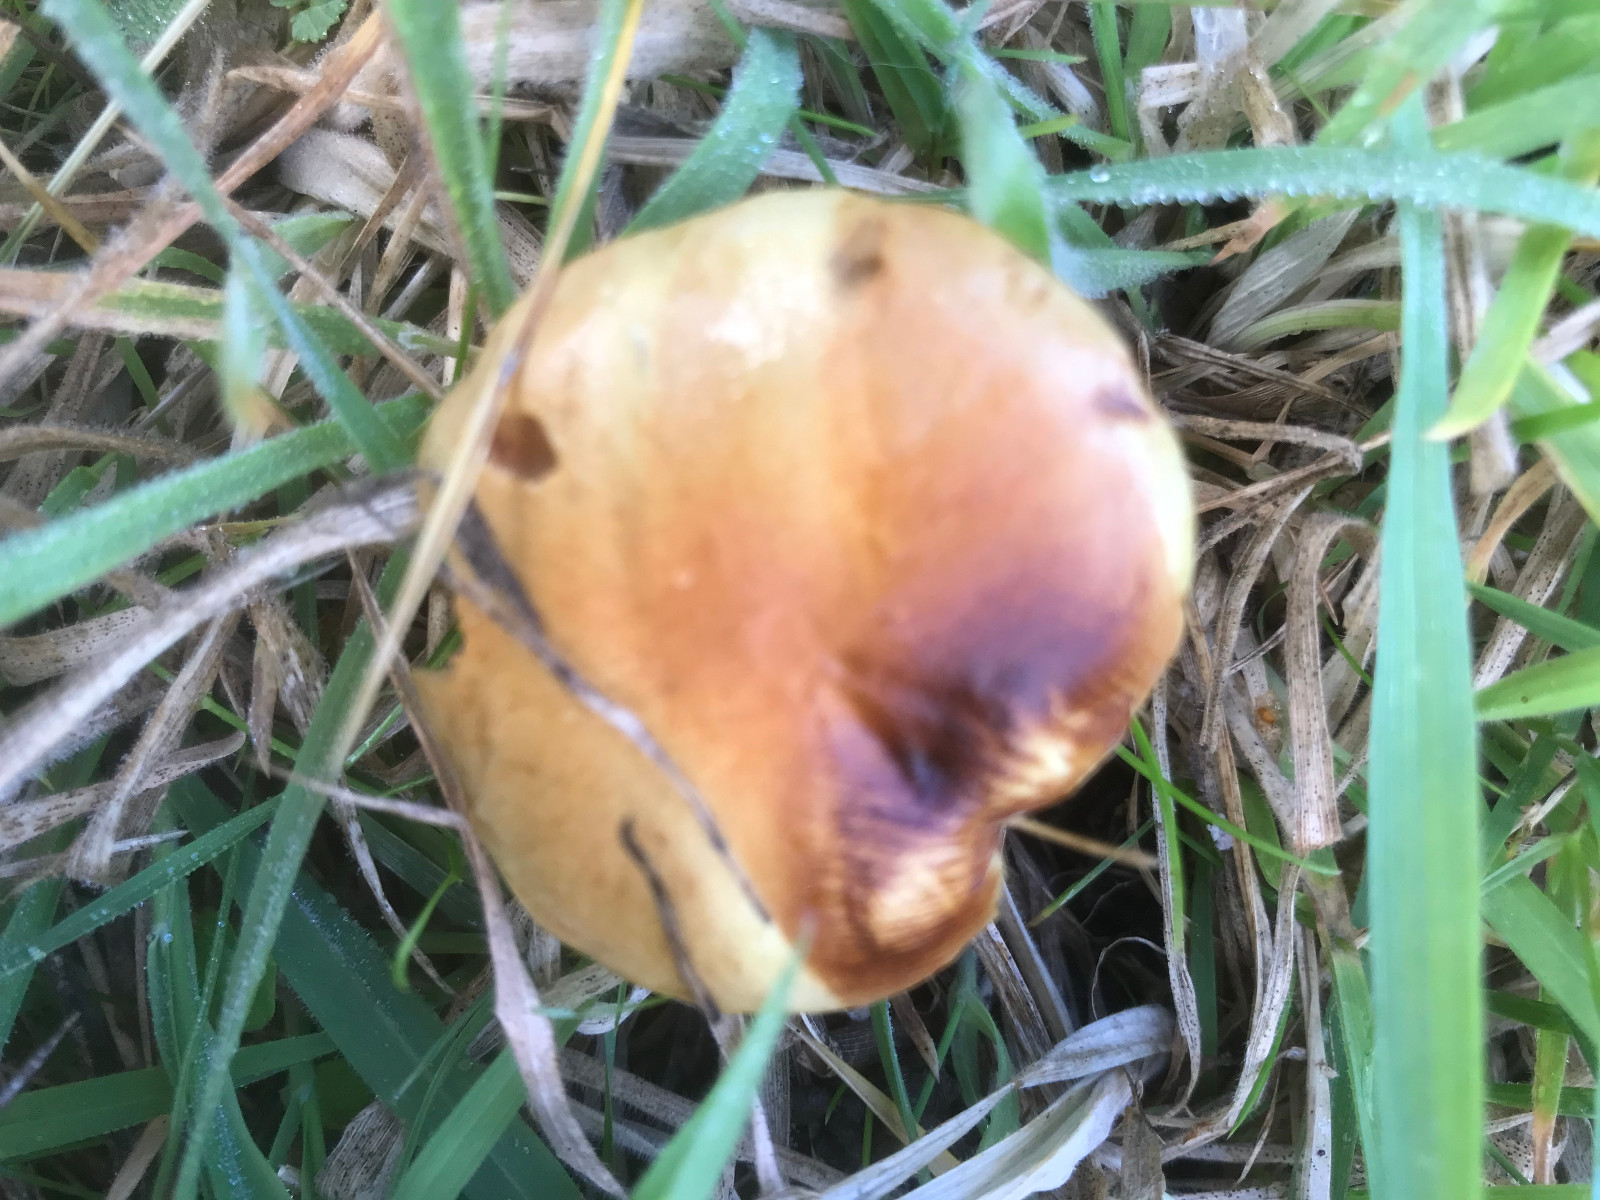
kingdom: Fungi
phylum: Basidiomycota
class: Agaricomycetes
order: Agaricales
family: Strophariaceae
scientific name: Strophariaceae
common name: bredbladfamilien
